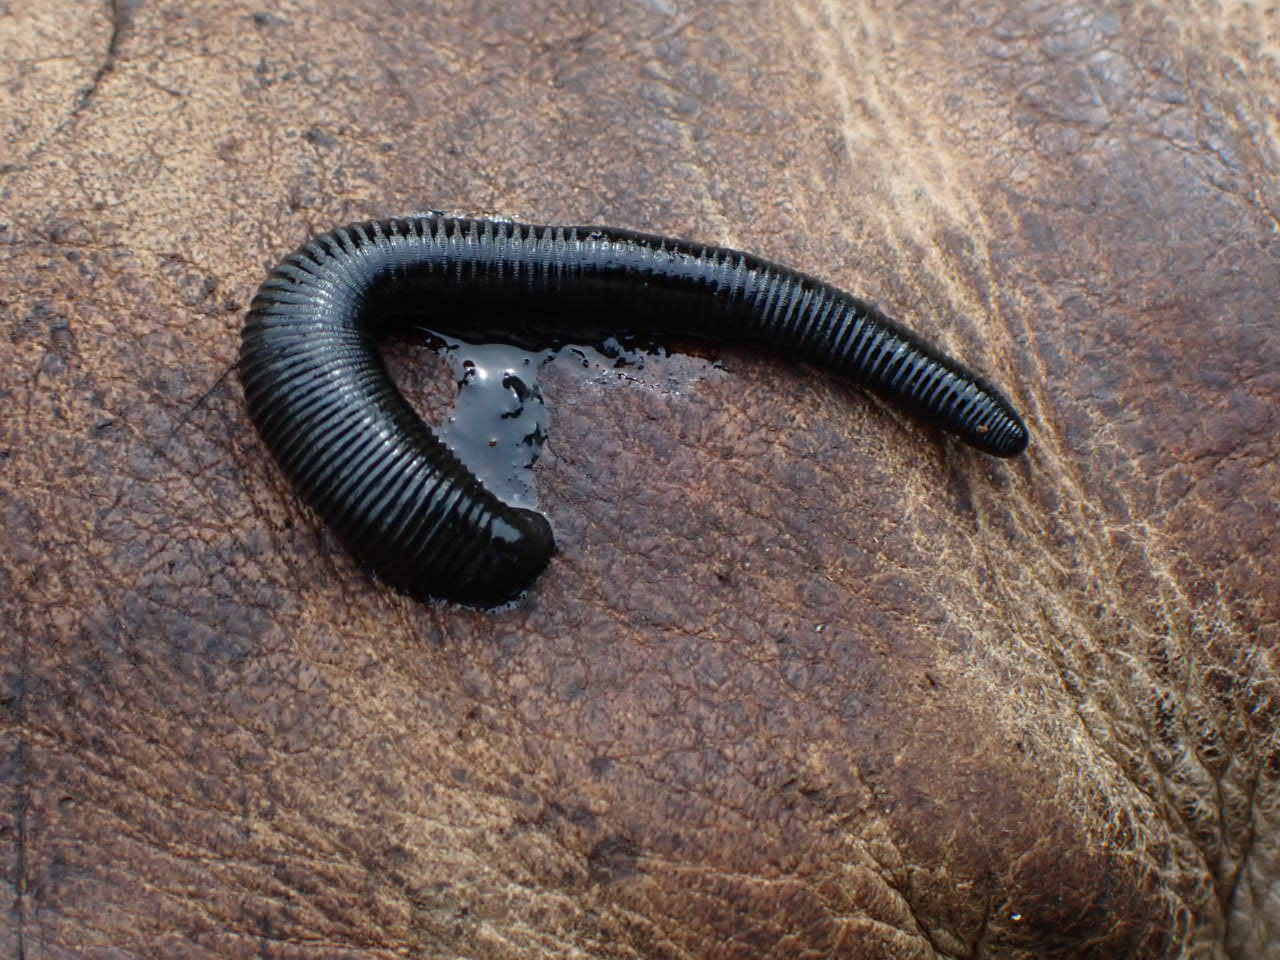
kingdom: Animalia
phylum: Annelida
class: Clitellata
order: Arhynchobdellida
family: Haemopidae
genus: Haemopis
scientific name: Haemopis sanguisuga
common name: Hesteigle
